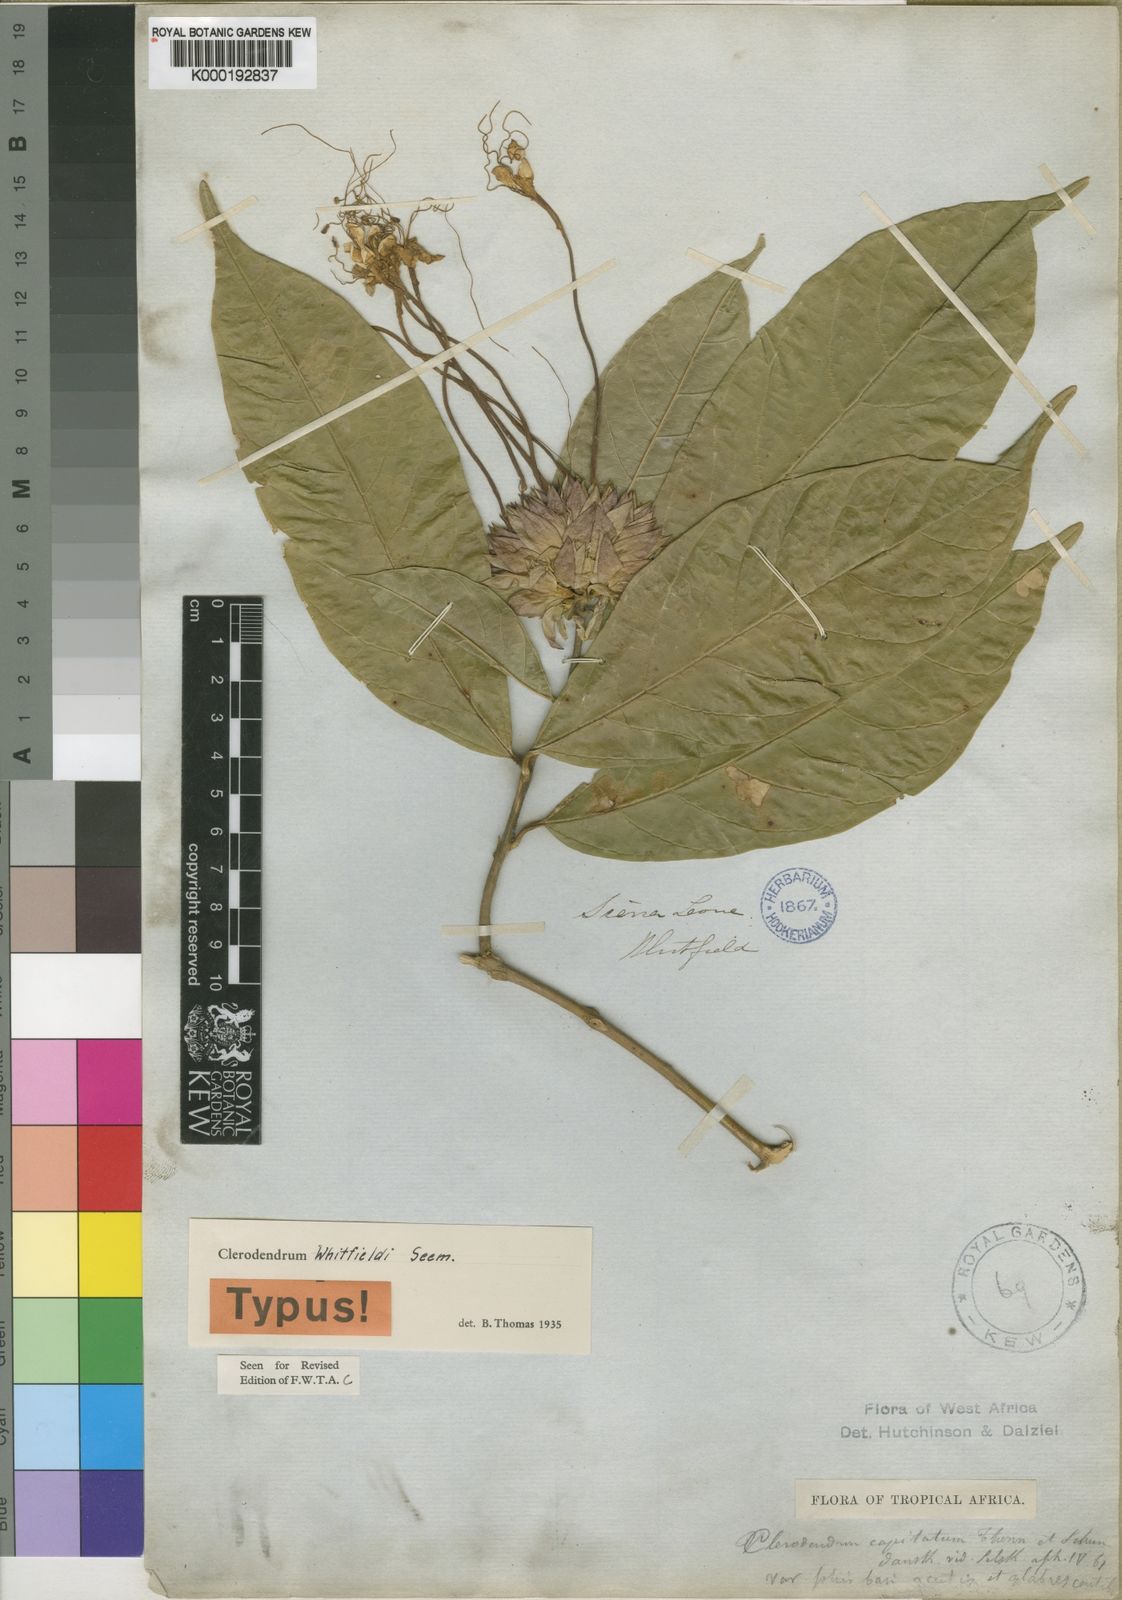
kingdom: Plantae
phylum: Tracheophyta
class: Magnoliopsida
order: Lamiales
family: Lamiaceae
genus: Clerodendrum
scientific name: Clerodendrum capitatum
